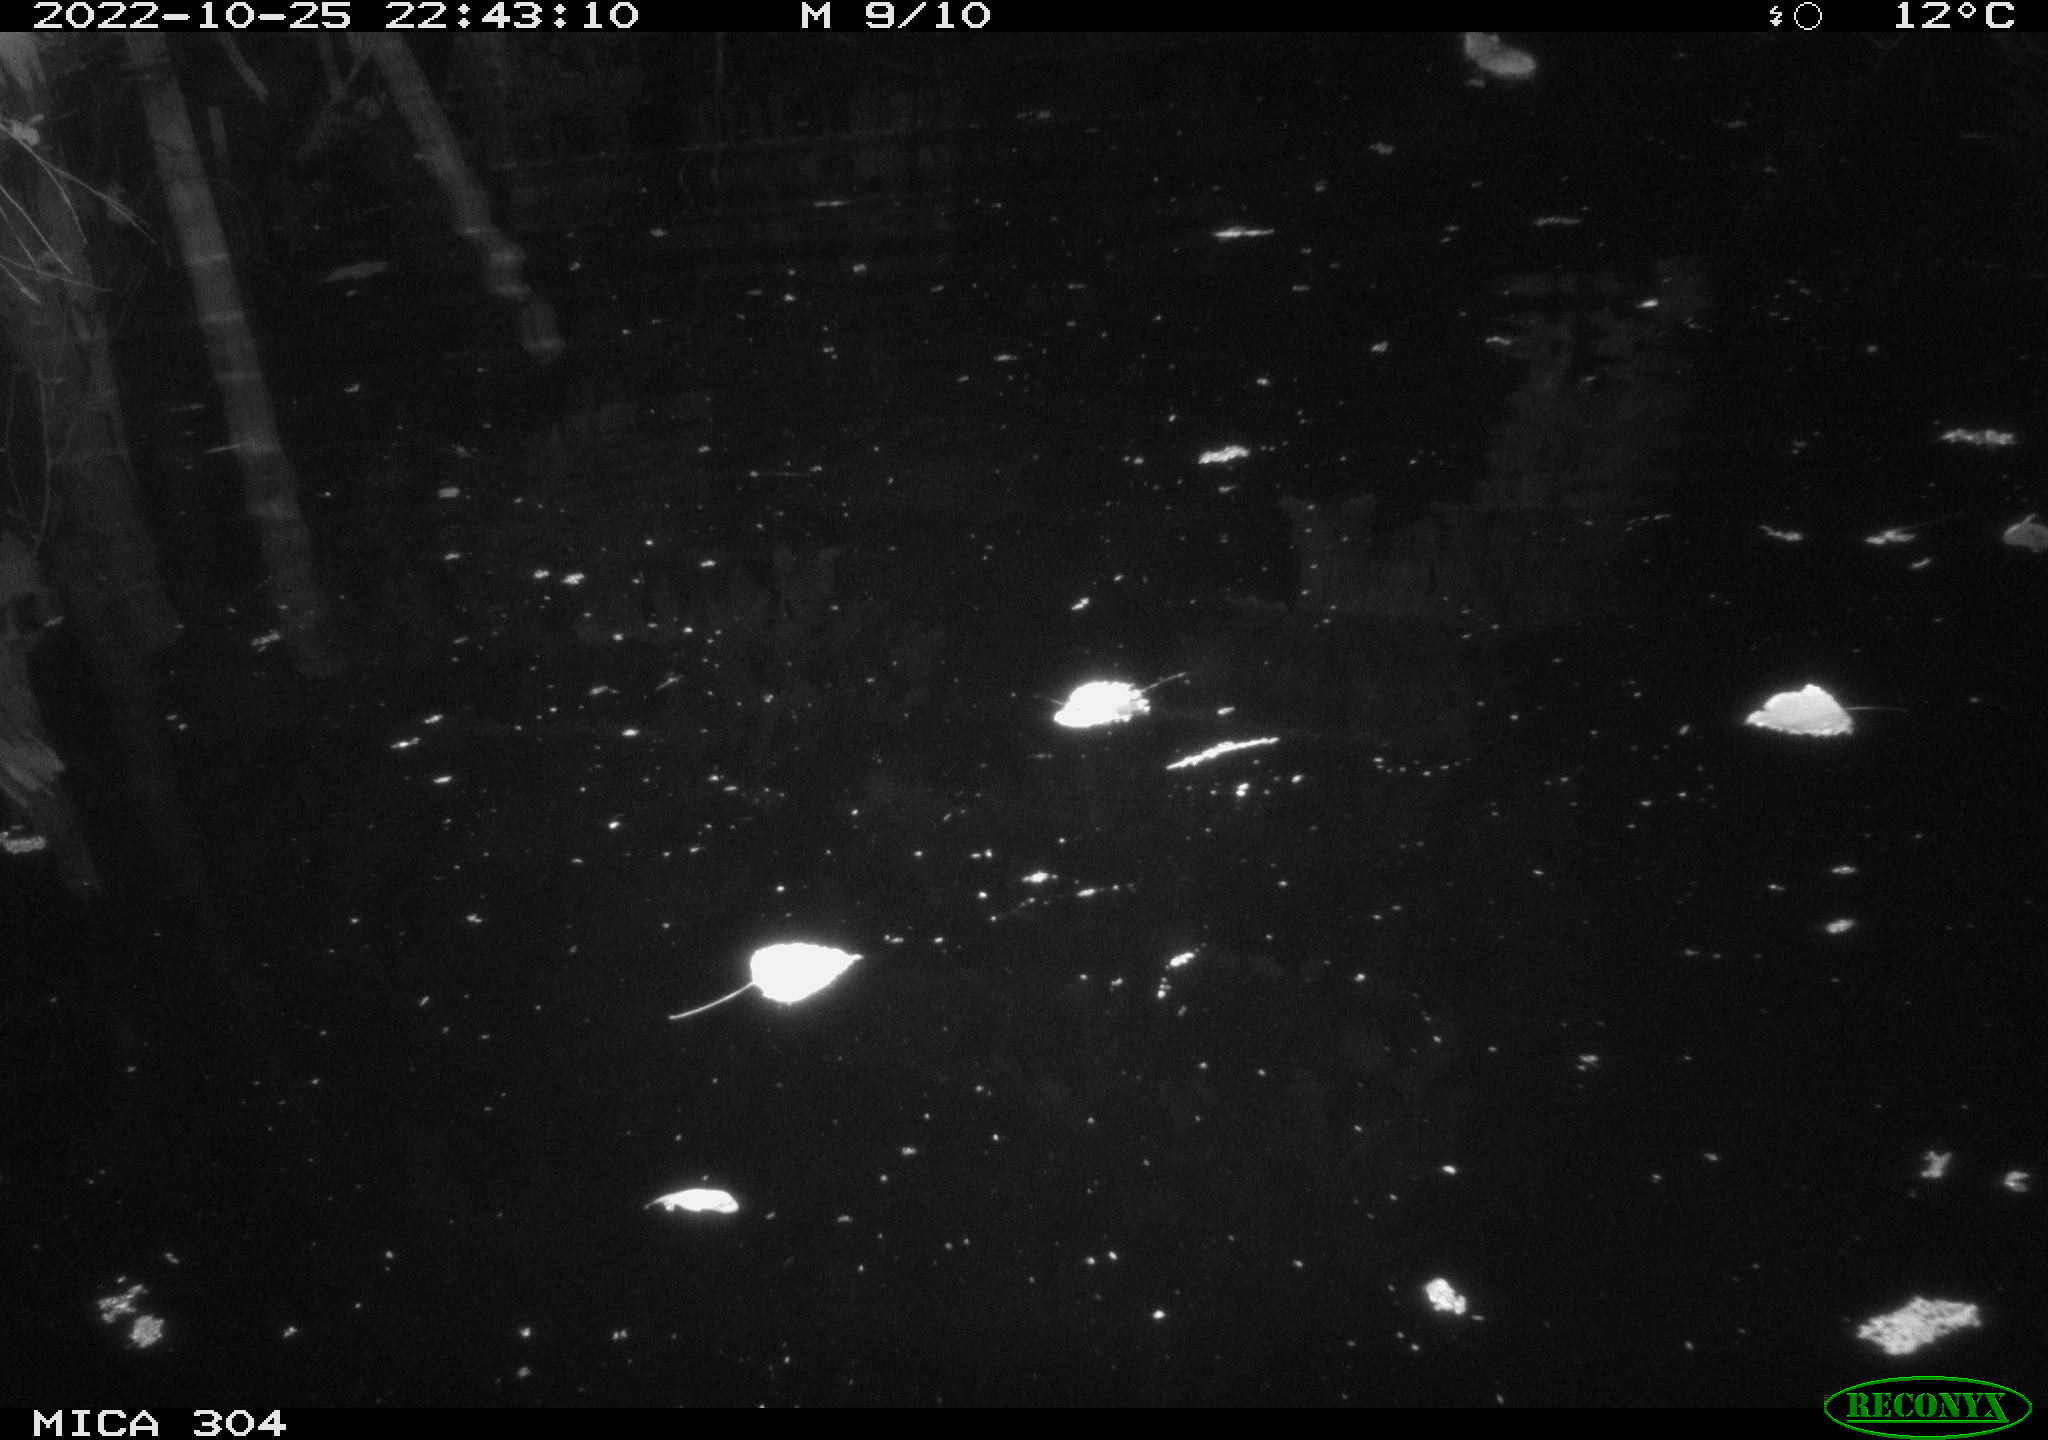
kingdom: Animalia
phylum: Chordata
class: Mammalia
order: Rodentia
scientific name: Rodentia
